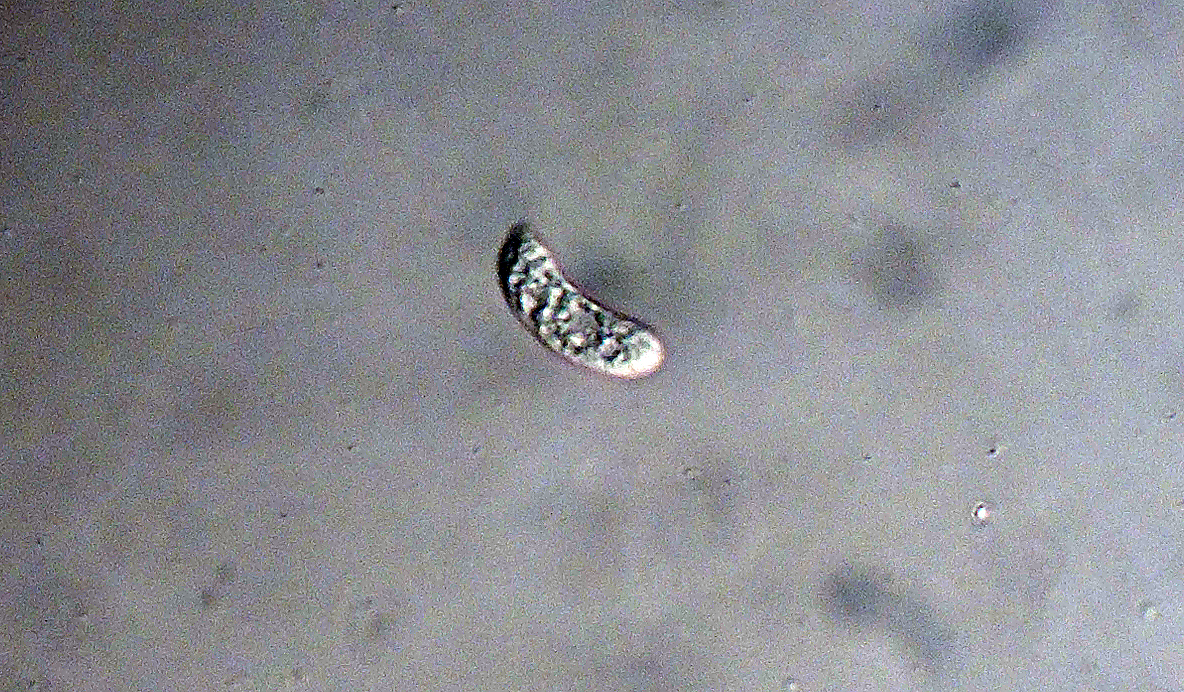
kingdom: Fungi
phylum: Basidiomycota
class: Agaricomycetes
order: Polyporales
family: Meruliaceae
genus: Mycoacia
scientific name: Mycoacia livida
